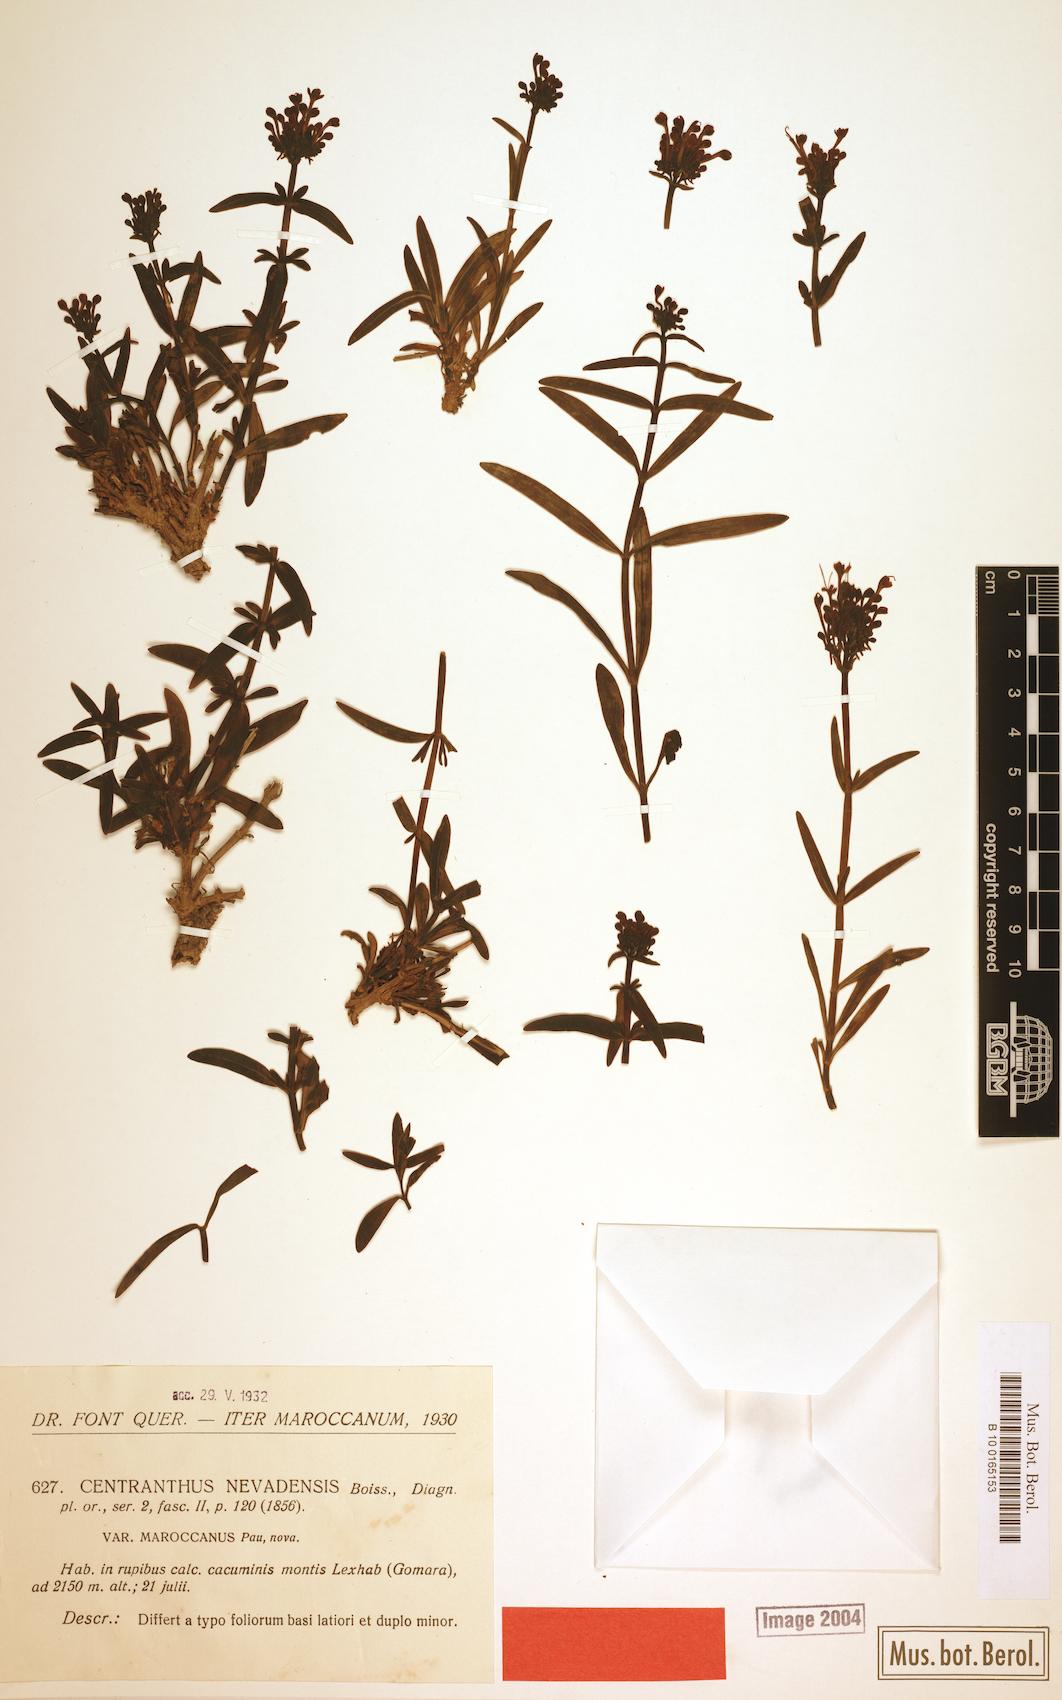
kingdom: Plantae
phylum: Tracheophyta
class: Magnoliopsida
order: Dipsacales
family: Caprifoliaceae
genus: Centranthus
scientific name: Centranthus nevadensis
